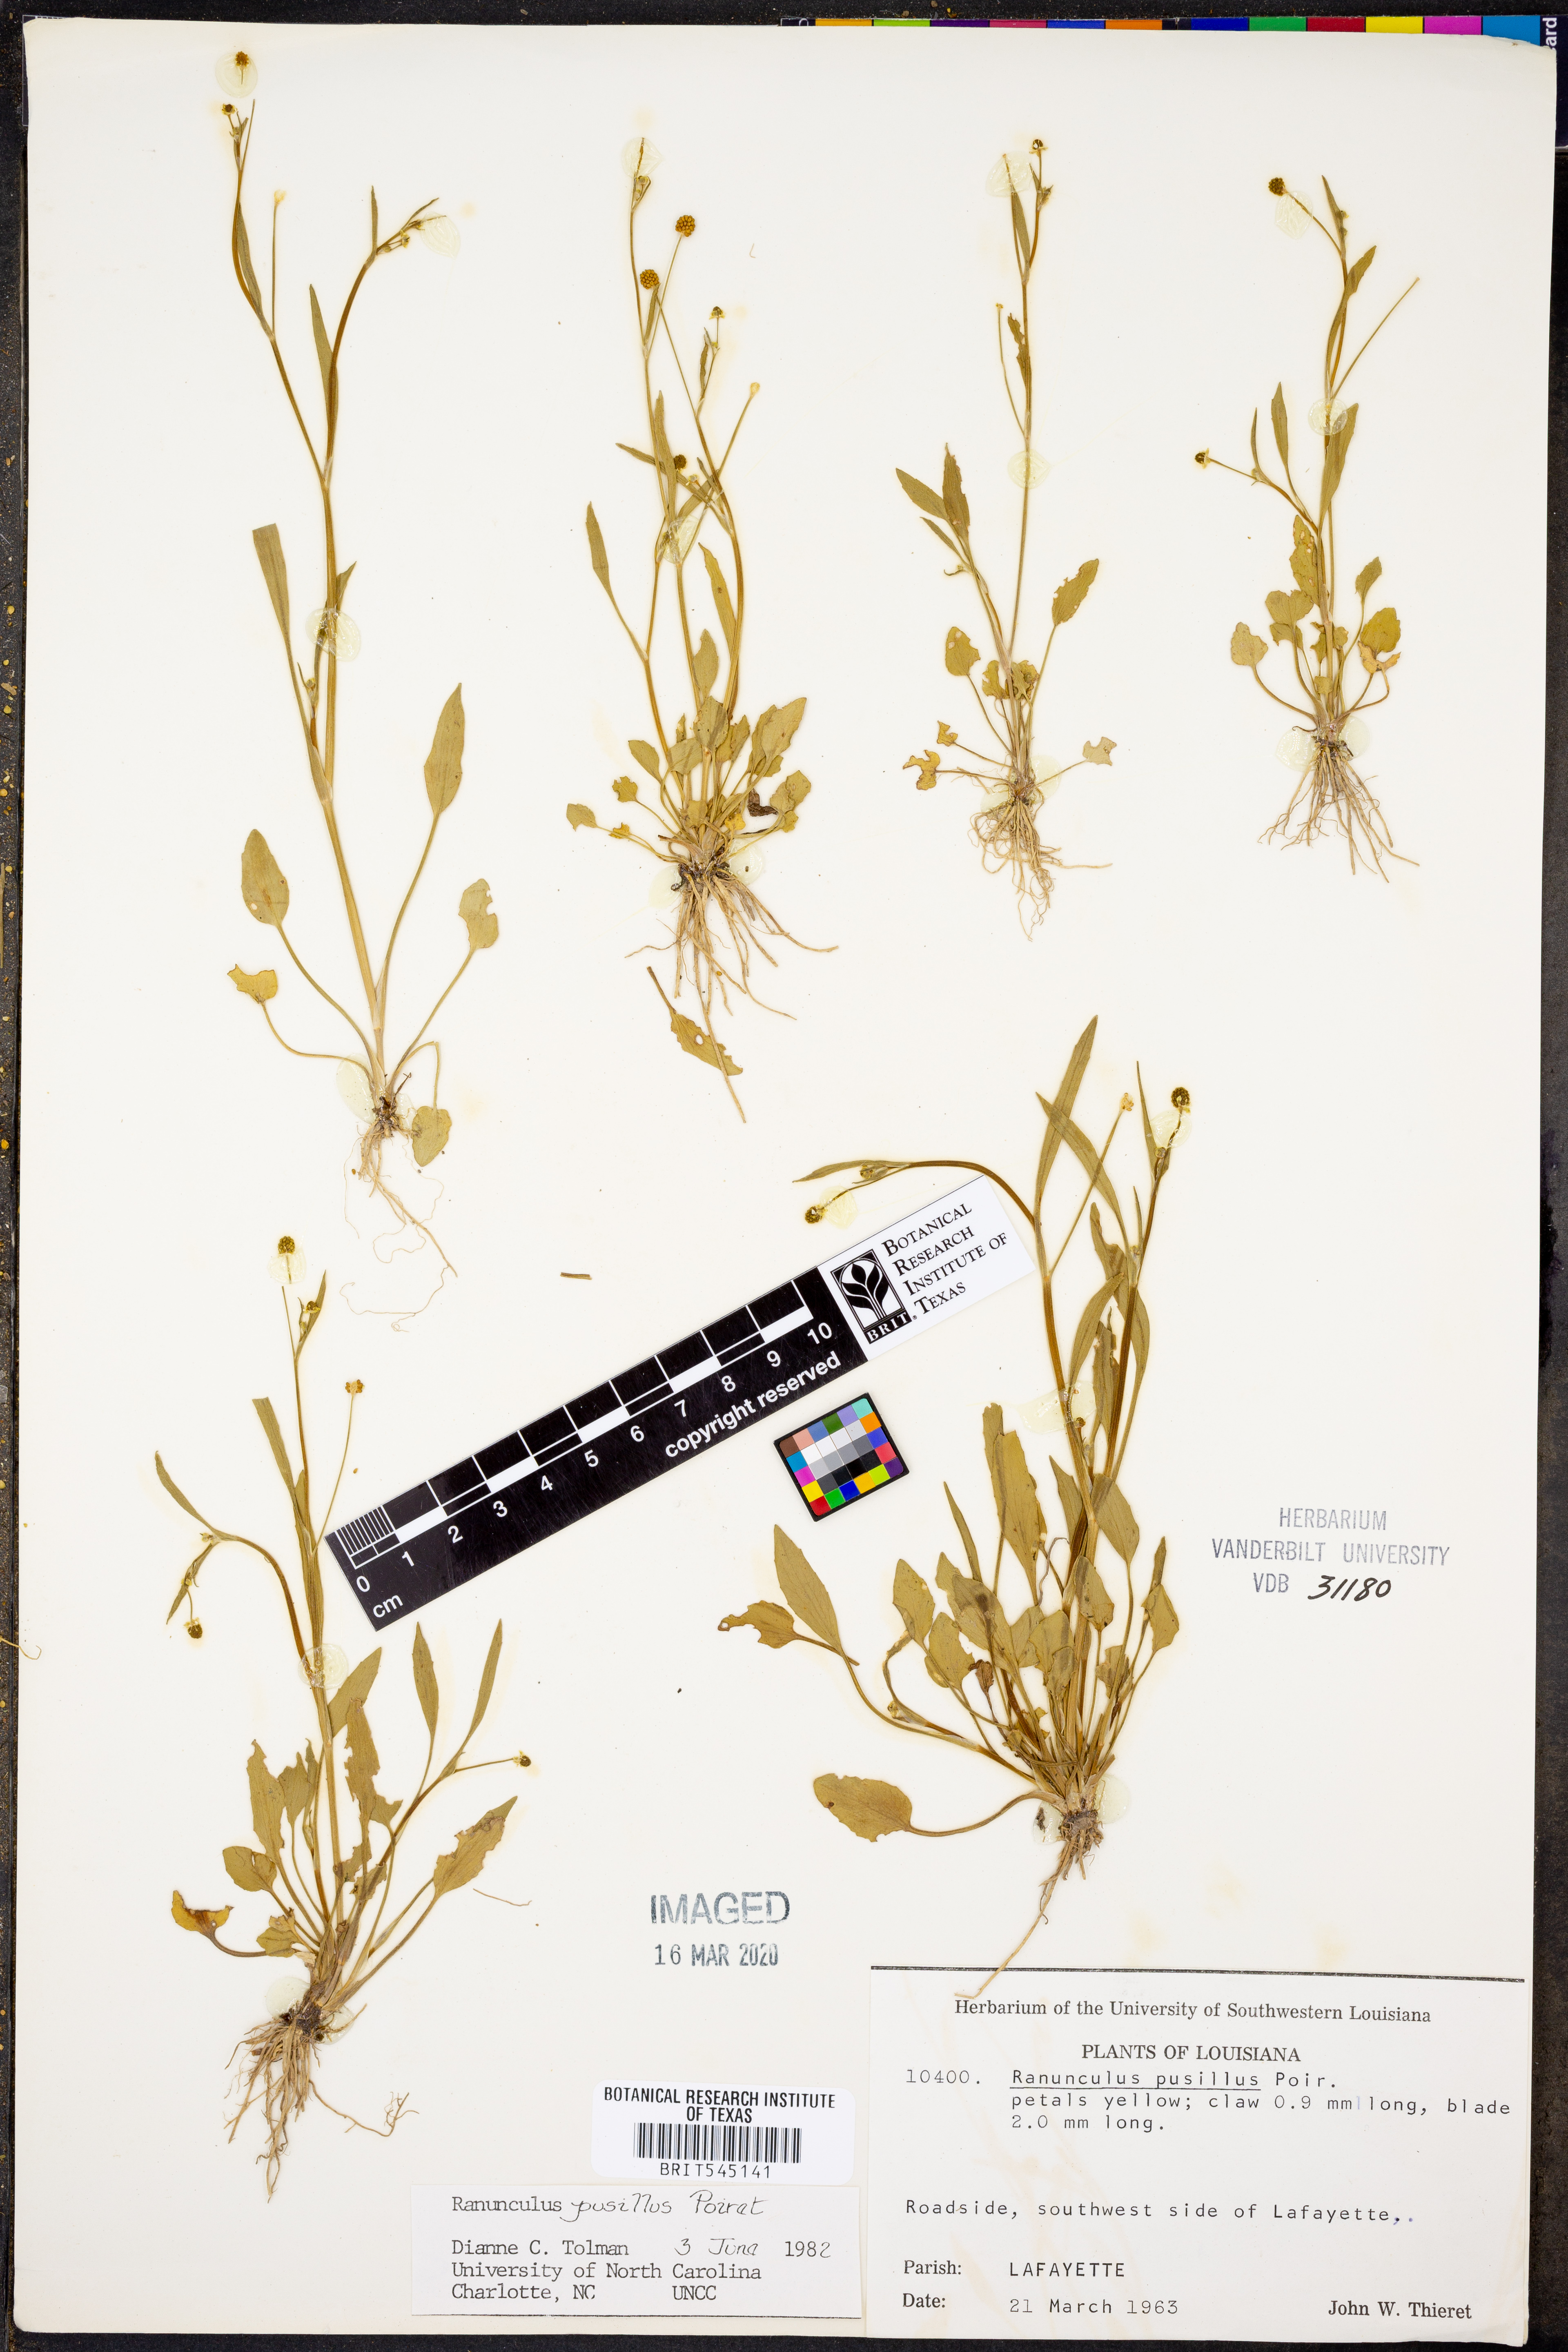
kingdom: Plantae
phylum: Tracheophyta
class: Magnoliopsida
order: Ranunculales
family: Ranunculaceae
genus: Ranunculus
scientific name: Ranunculus pusillus
